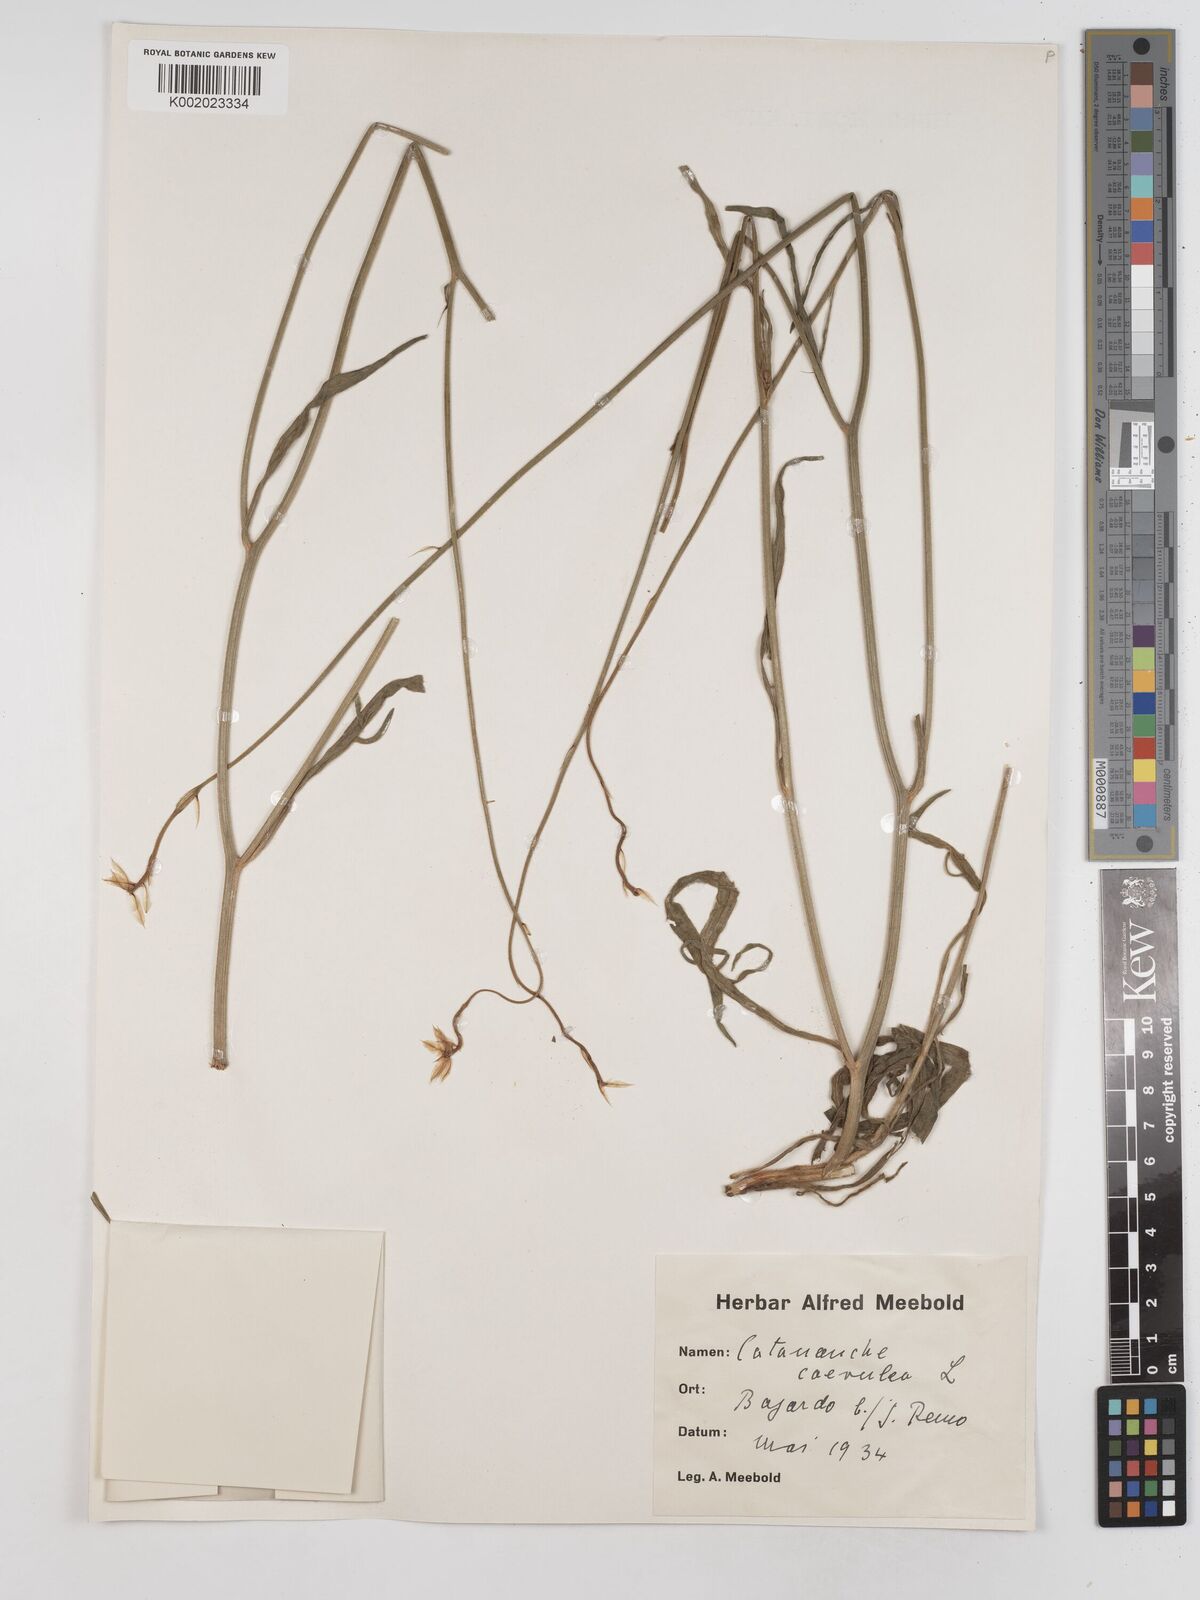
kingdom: Plantae
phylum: Tracheophyta
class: Magnoliopsida
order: Asterales
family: Asteraceae
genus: Catananche
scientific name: Catananche caerulea
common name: Blue cupidone
